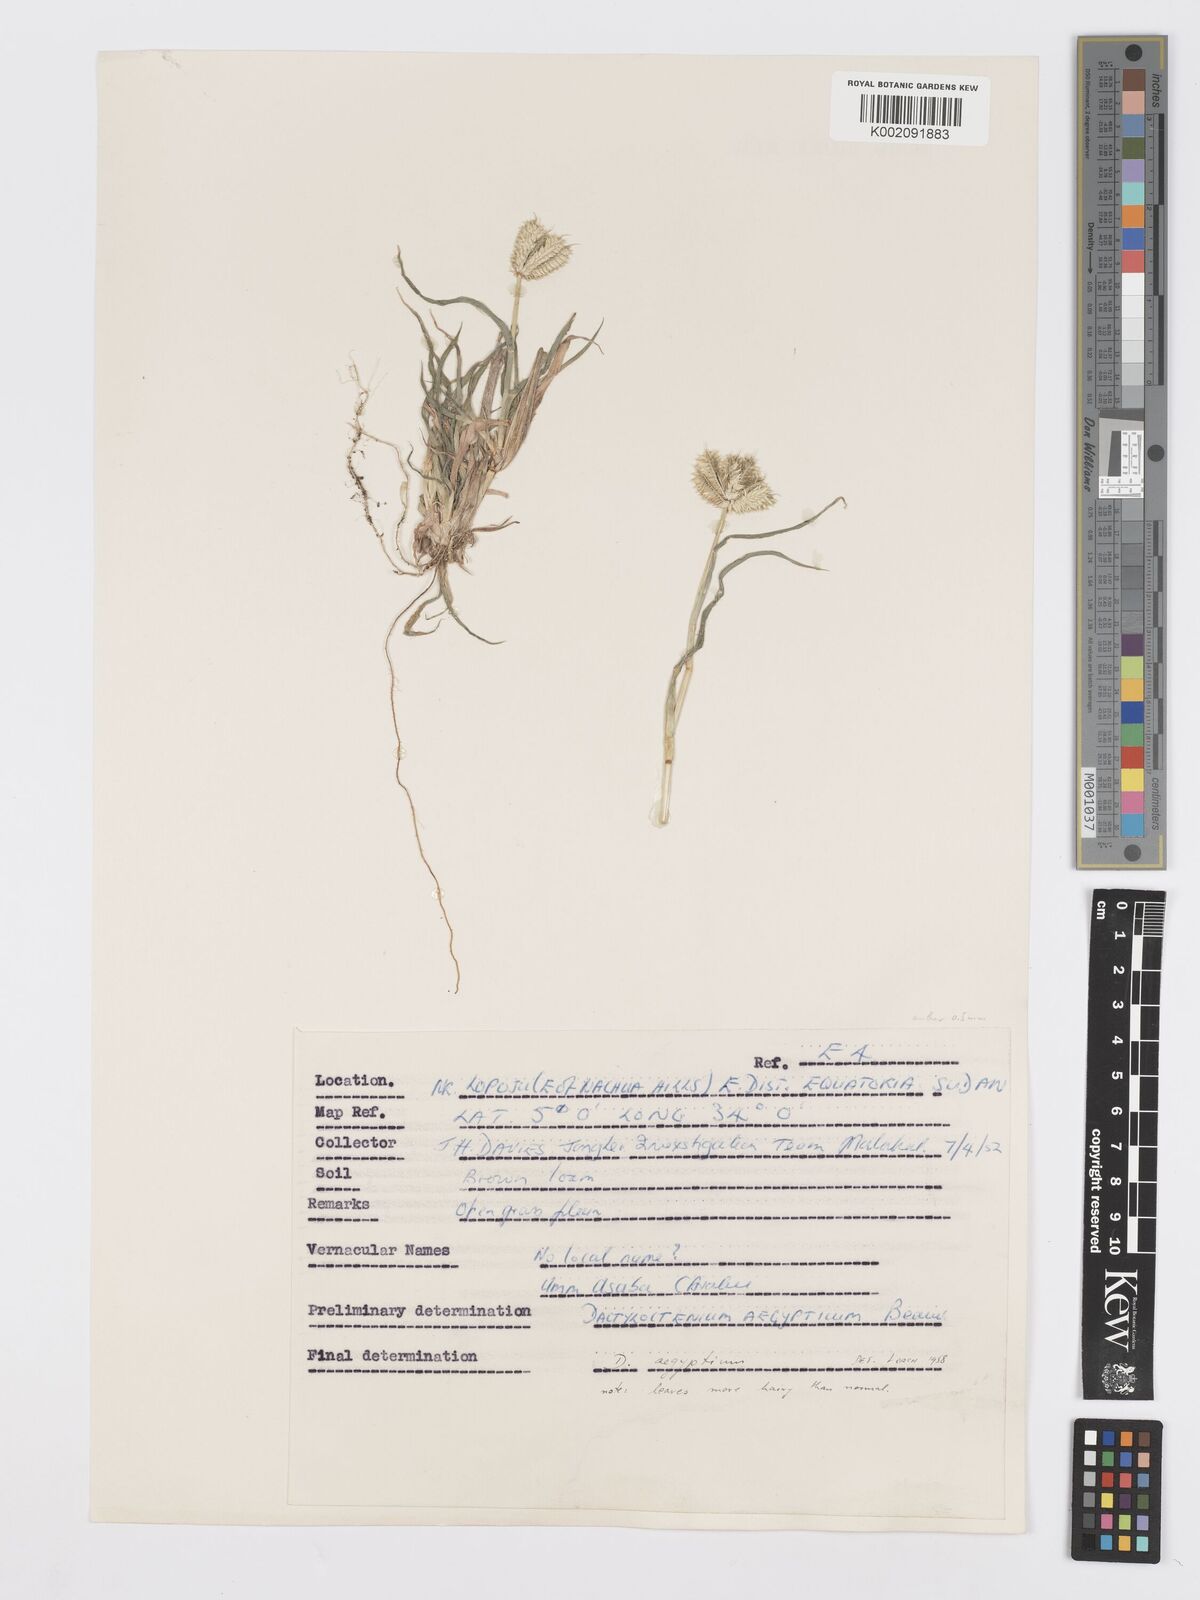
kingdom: Plantae
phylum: Tracheophyta
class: Liliopsida
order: Poales
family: Poaceae
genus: Dactyloctenium
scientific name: Dactyloctenium aegyptium
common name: Egyptian grass
